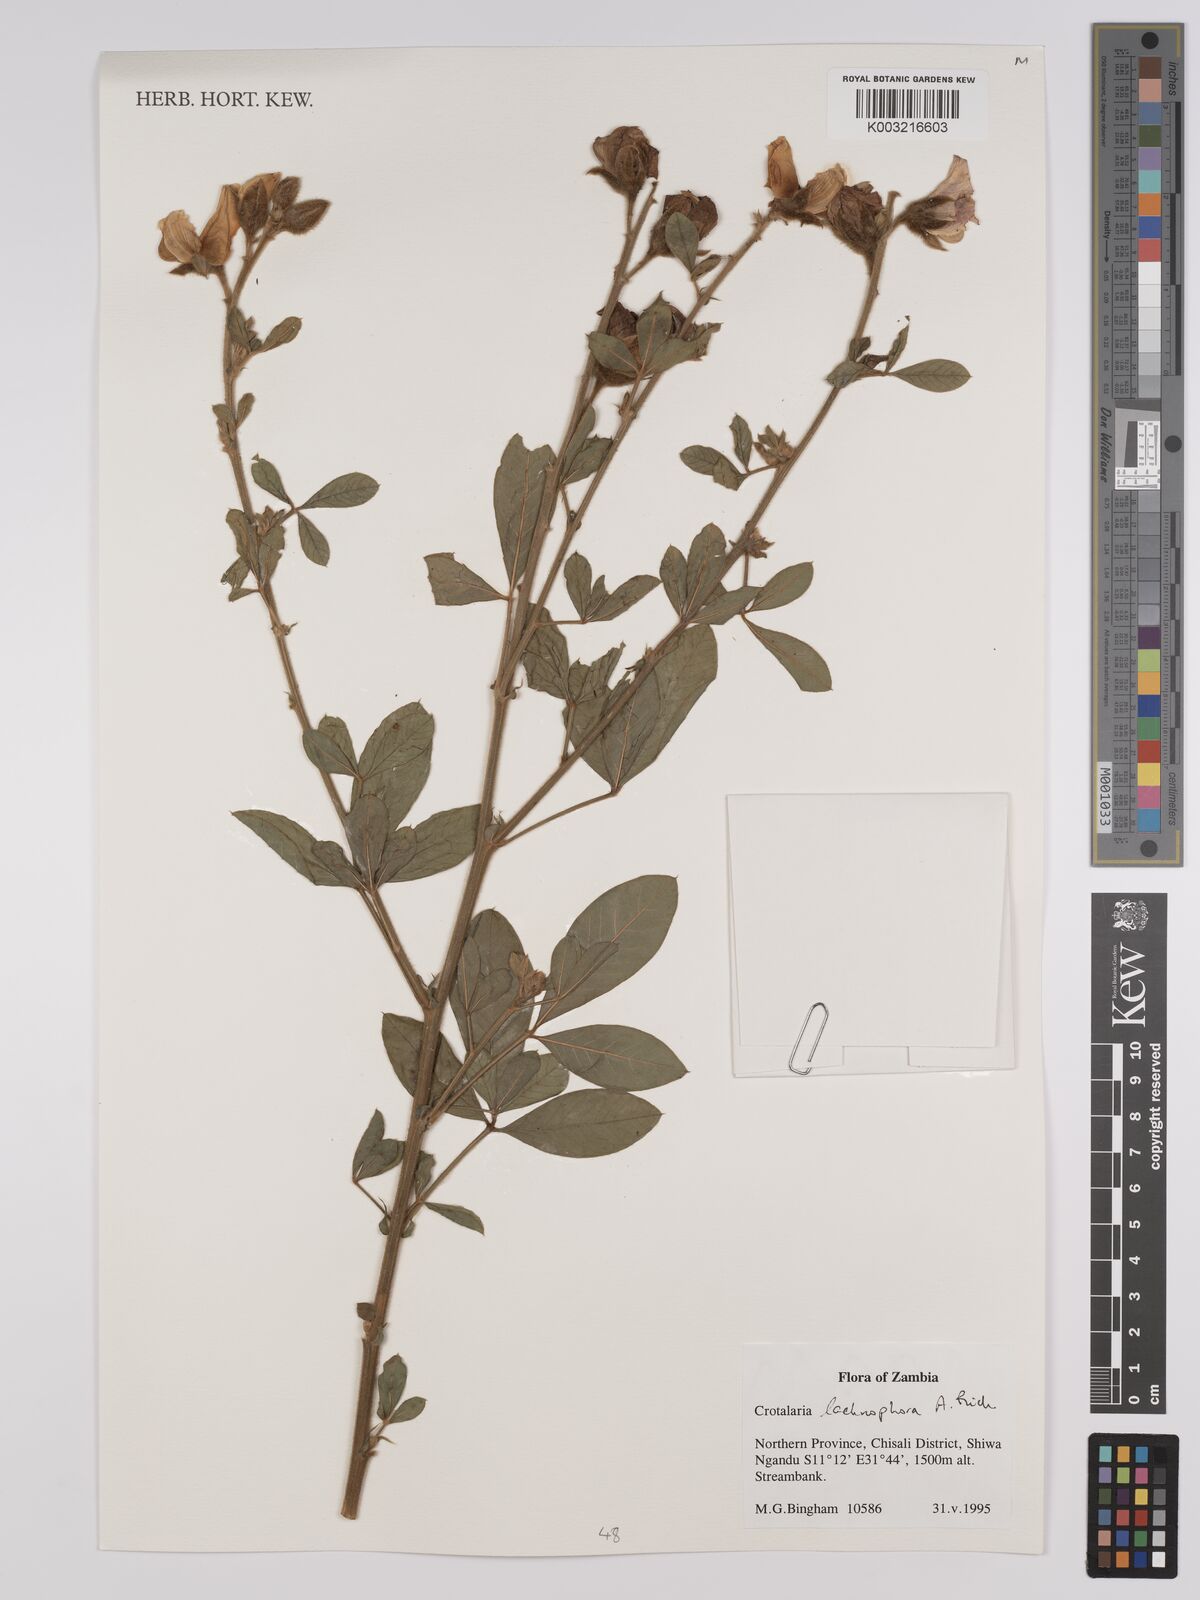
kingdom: Plantae
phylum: Tracheophyta
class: Magnoliopsida
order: Fabales
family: Fabaceae
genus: Crotalaria
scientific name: Crotalaria lachnophora
